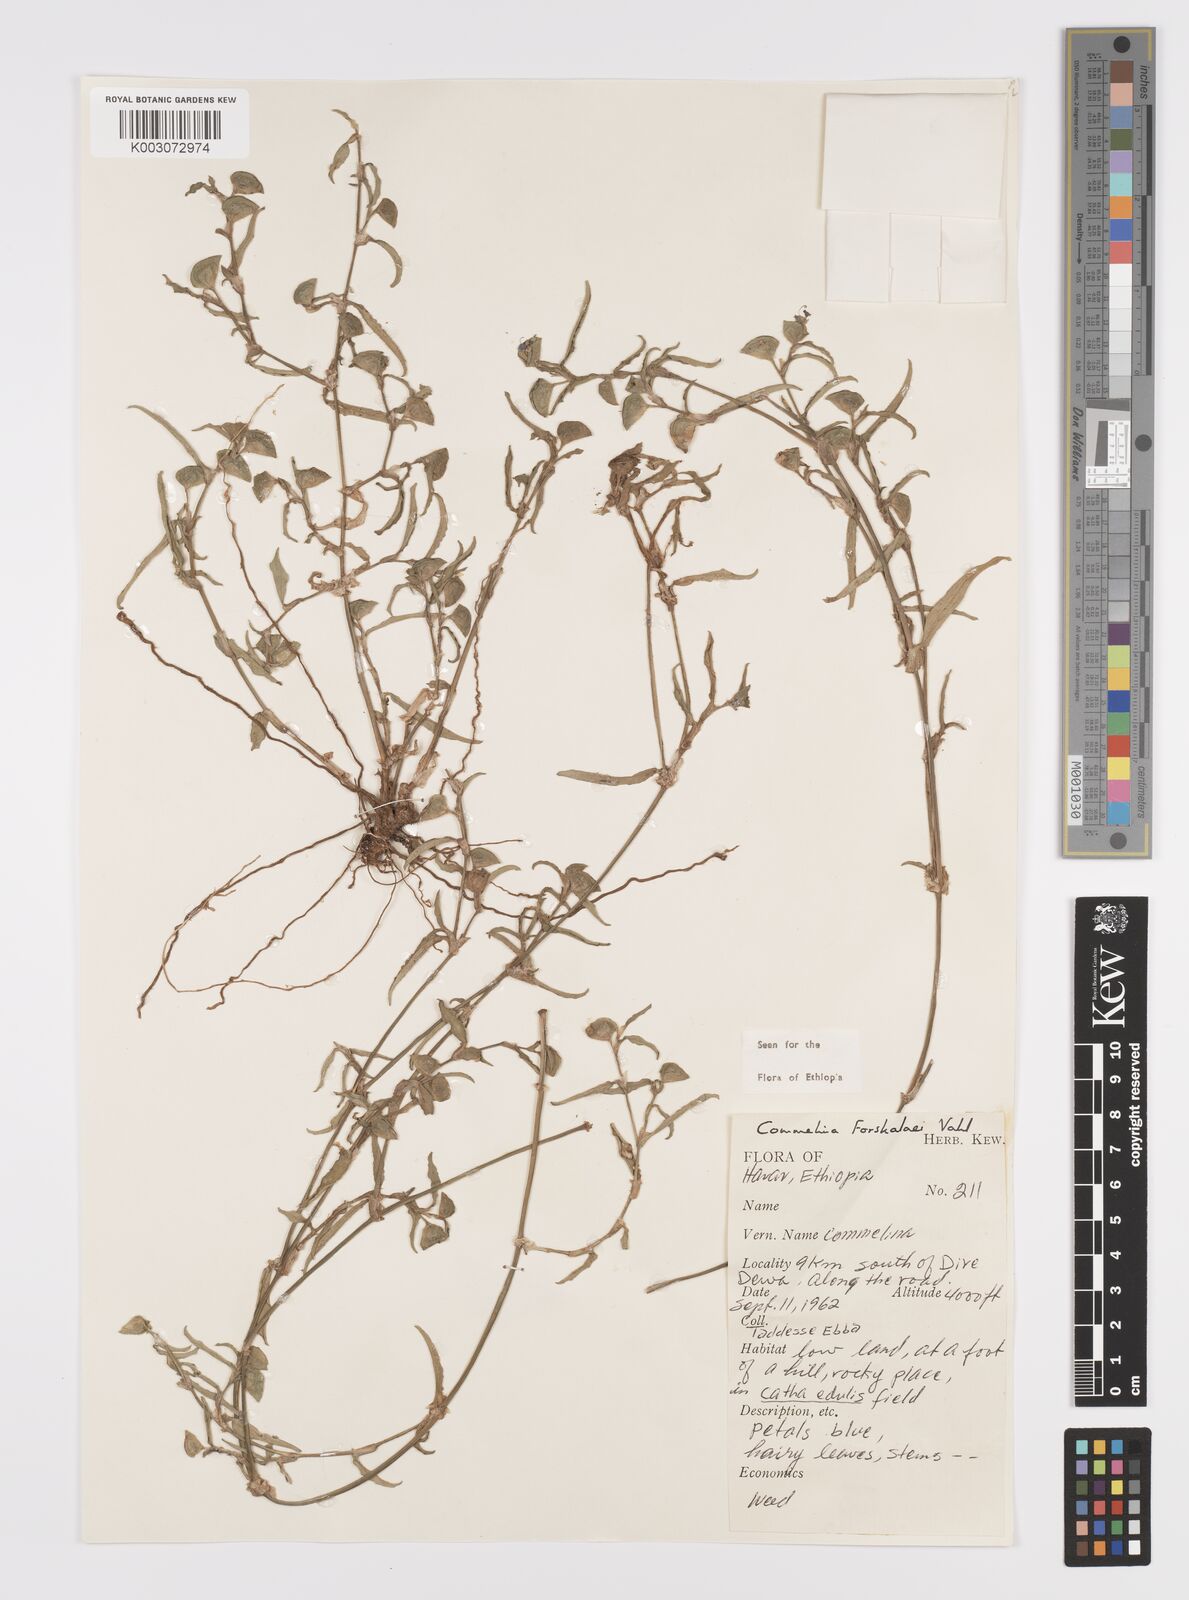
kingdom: Plantae
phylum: Tracheophyta
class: Liliopsida
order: Commelinales
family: Commelinaceae
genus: Commelina
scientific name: Commelina forskaolii
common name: Rat's ear
